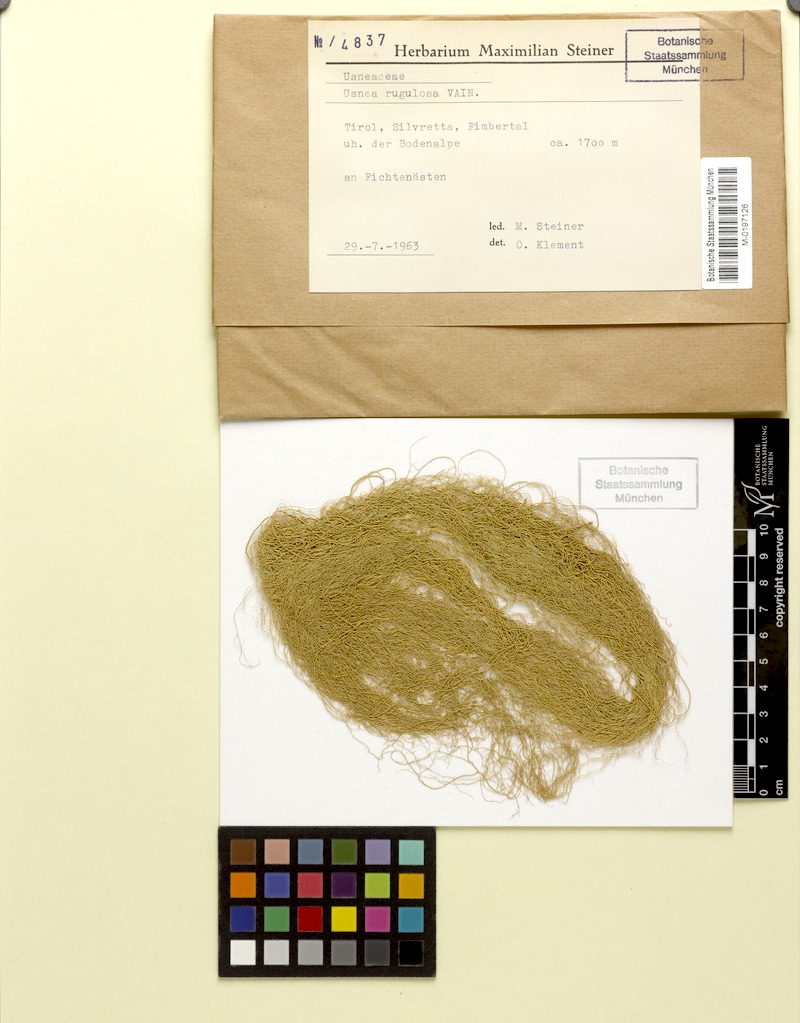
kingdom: Fungi
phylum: Ascomycota
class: Lecanoromycetes
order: Lecanorales
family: Parmeliaceae
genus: Usnea
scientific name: Usnea barbata
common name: Old man's beard lichen
